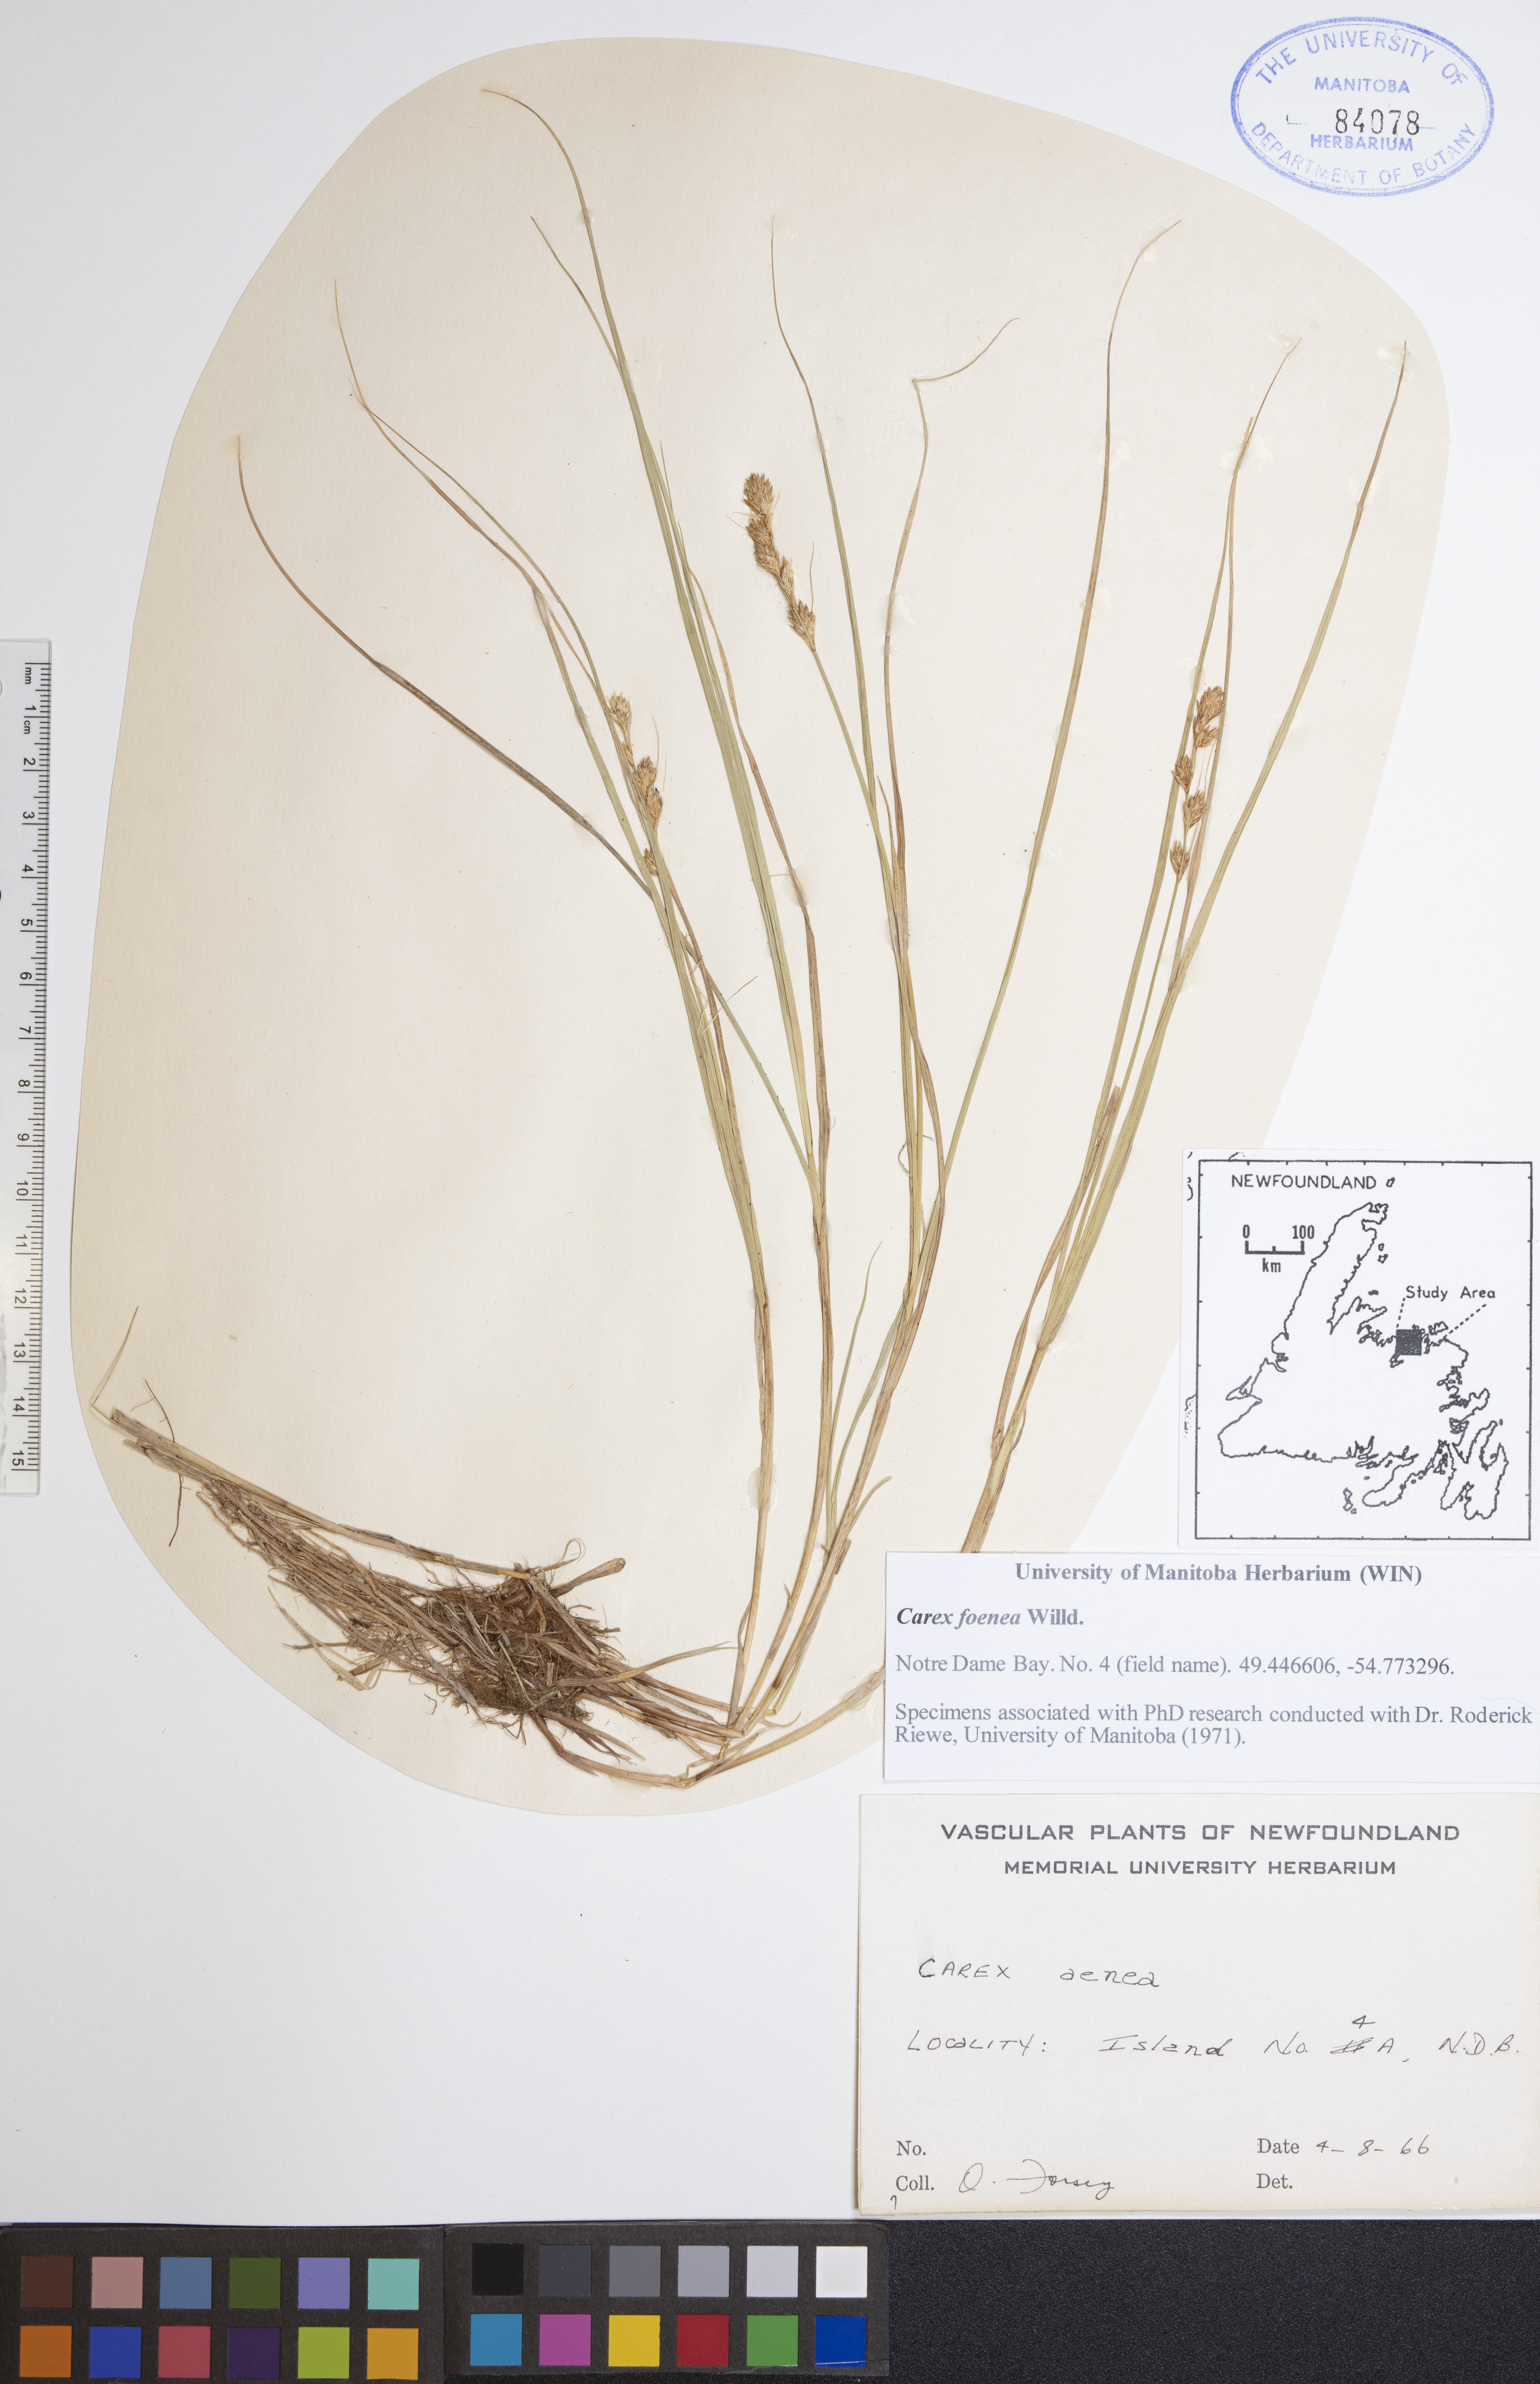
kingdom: Plantae
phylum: Tracheophyta
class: Liliopsida
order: Poales
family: Cyperaceae
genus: Carex
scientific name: Carex foenea
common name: Bronze sedge
